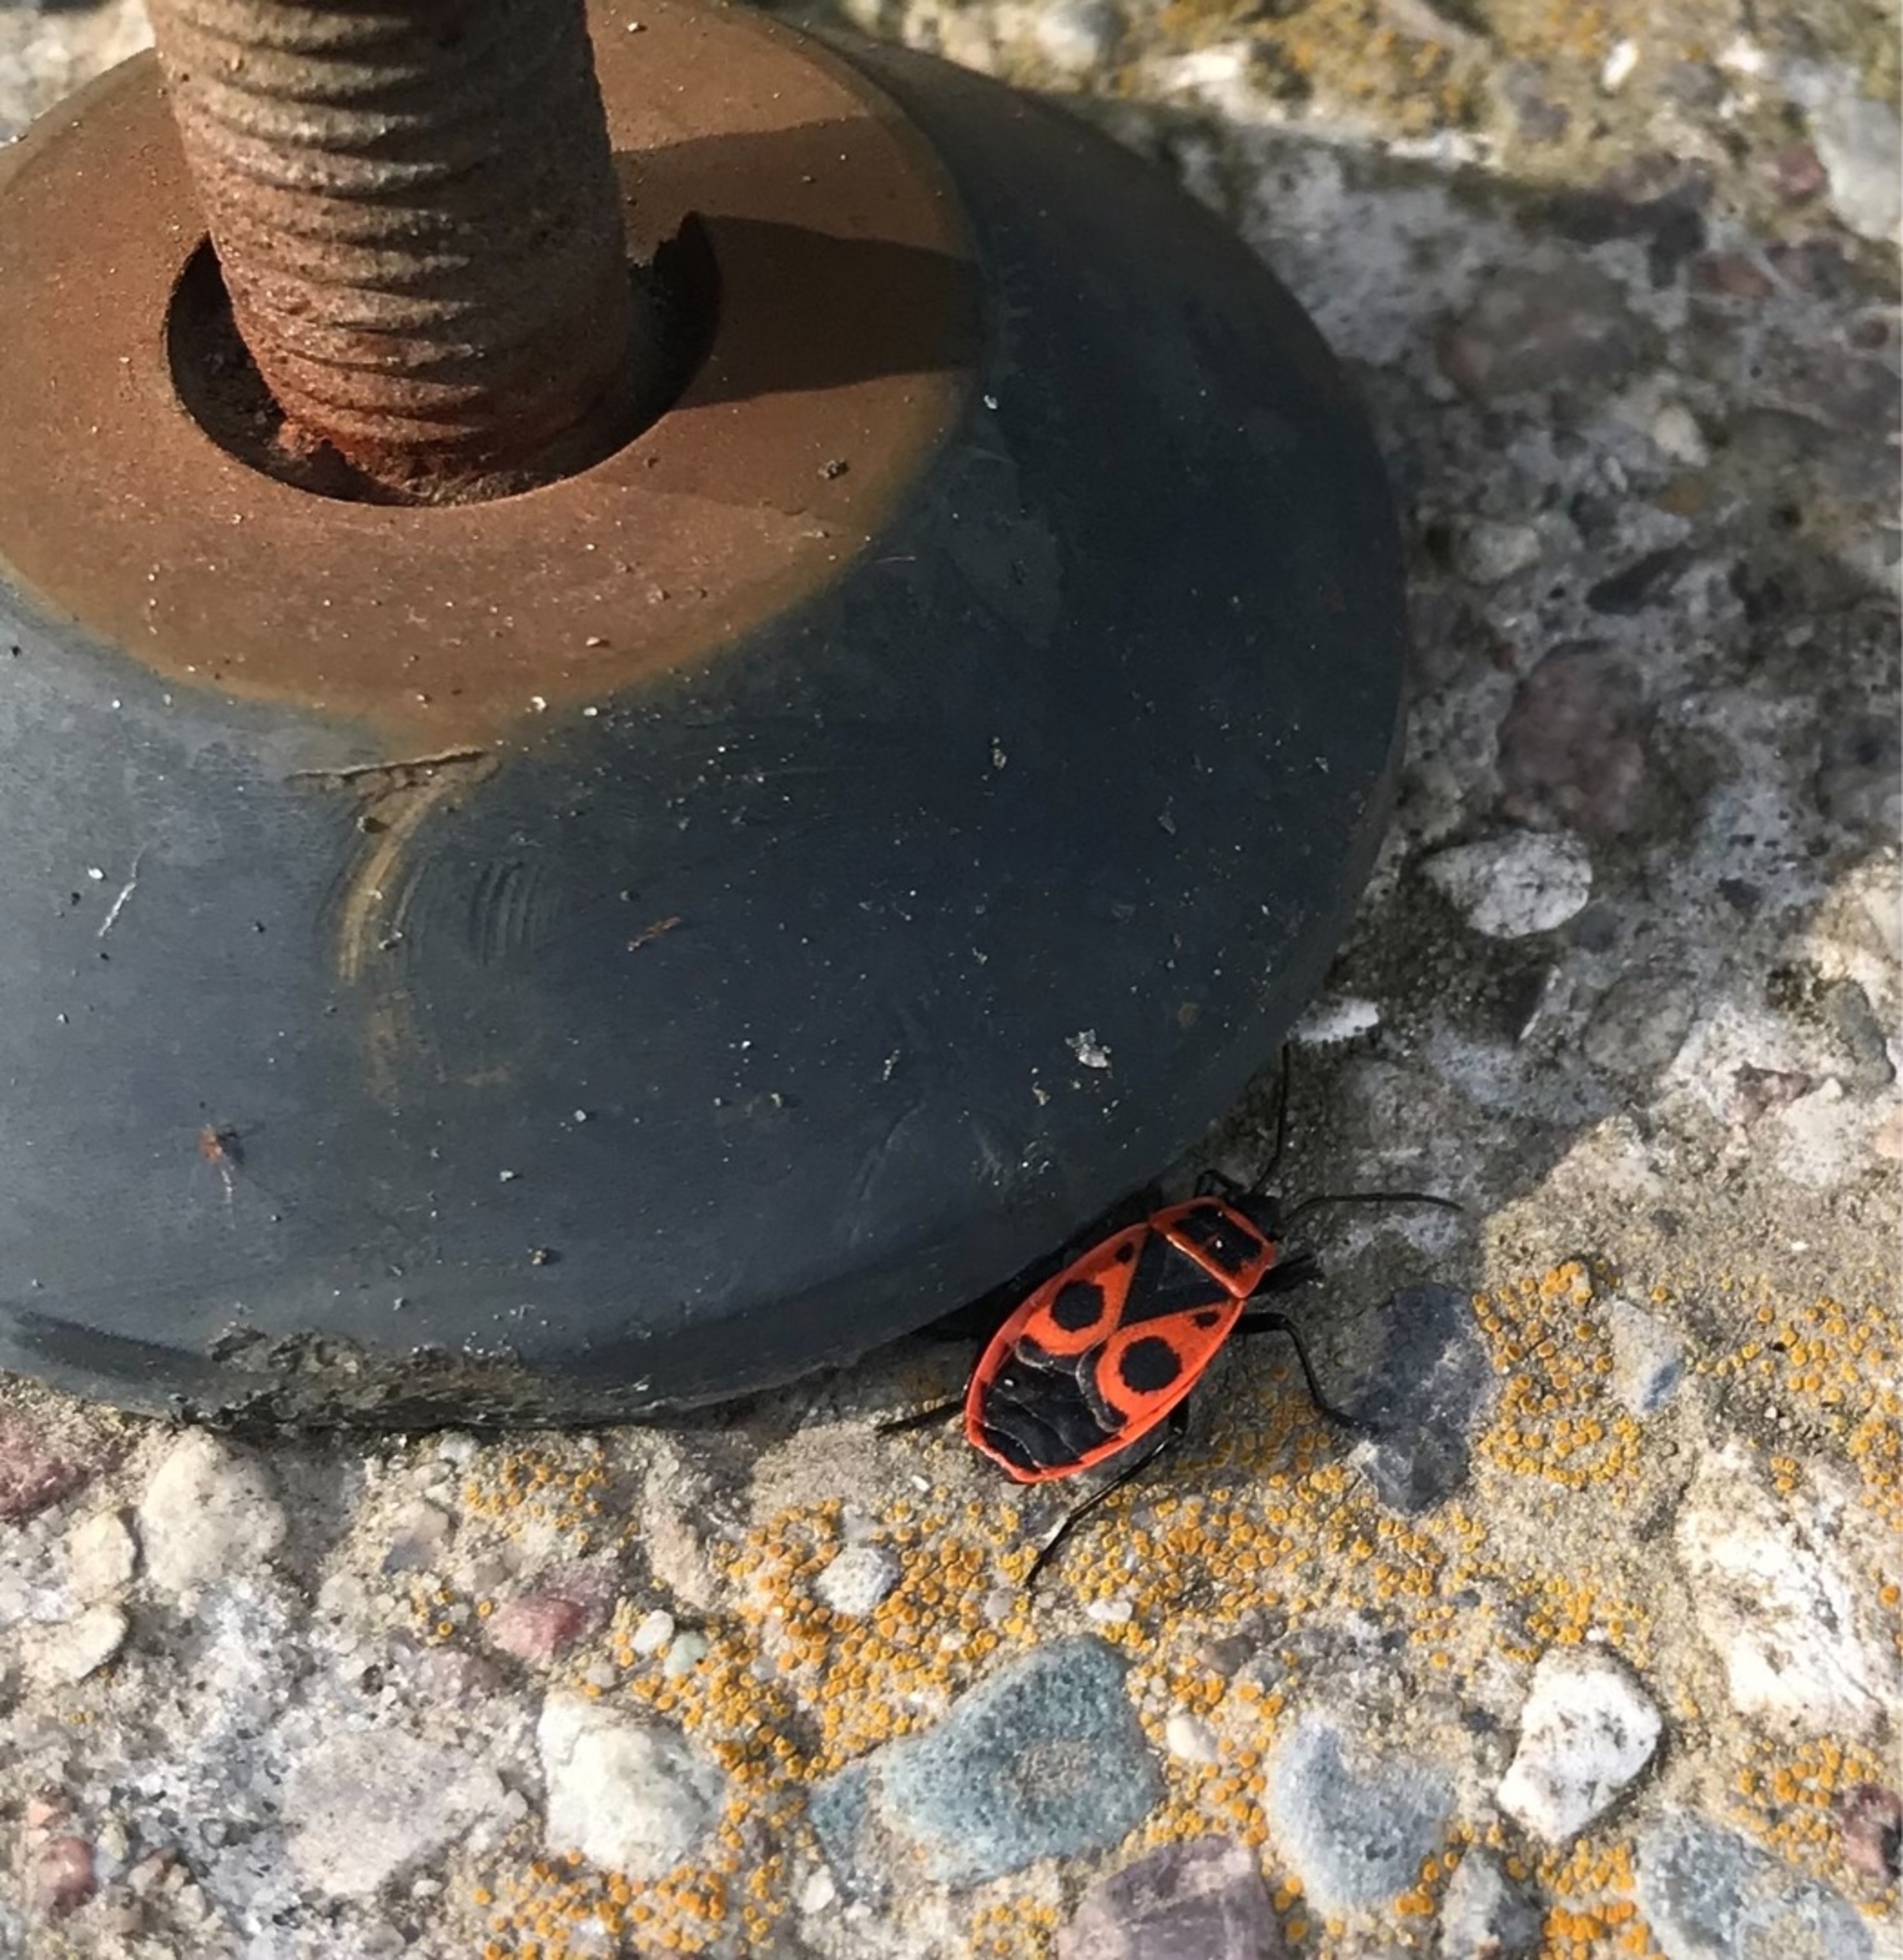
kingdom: Animalia
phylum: Arthropoda
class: Insecta
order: Hemiptera
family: Pyrrhocoridae
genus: Pyrrhocoris
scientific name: Pyrrhocoris apterus
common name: Ildtæge
